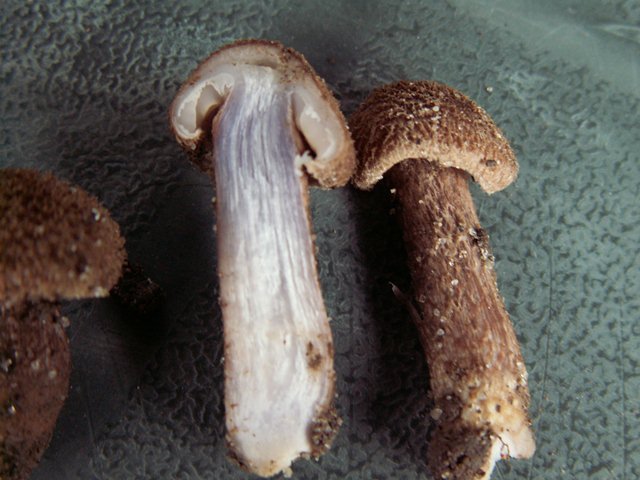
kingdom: Fungi
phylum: Basidiomycota
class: Agaricomycetes
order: Agaricales
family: Inocybaceae
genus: Inocybe
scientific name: Inocybe cincinnata
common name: lillabladet trævlhat
